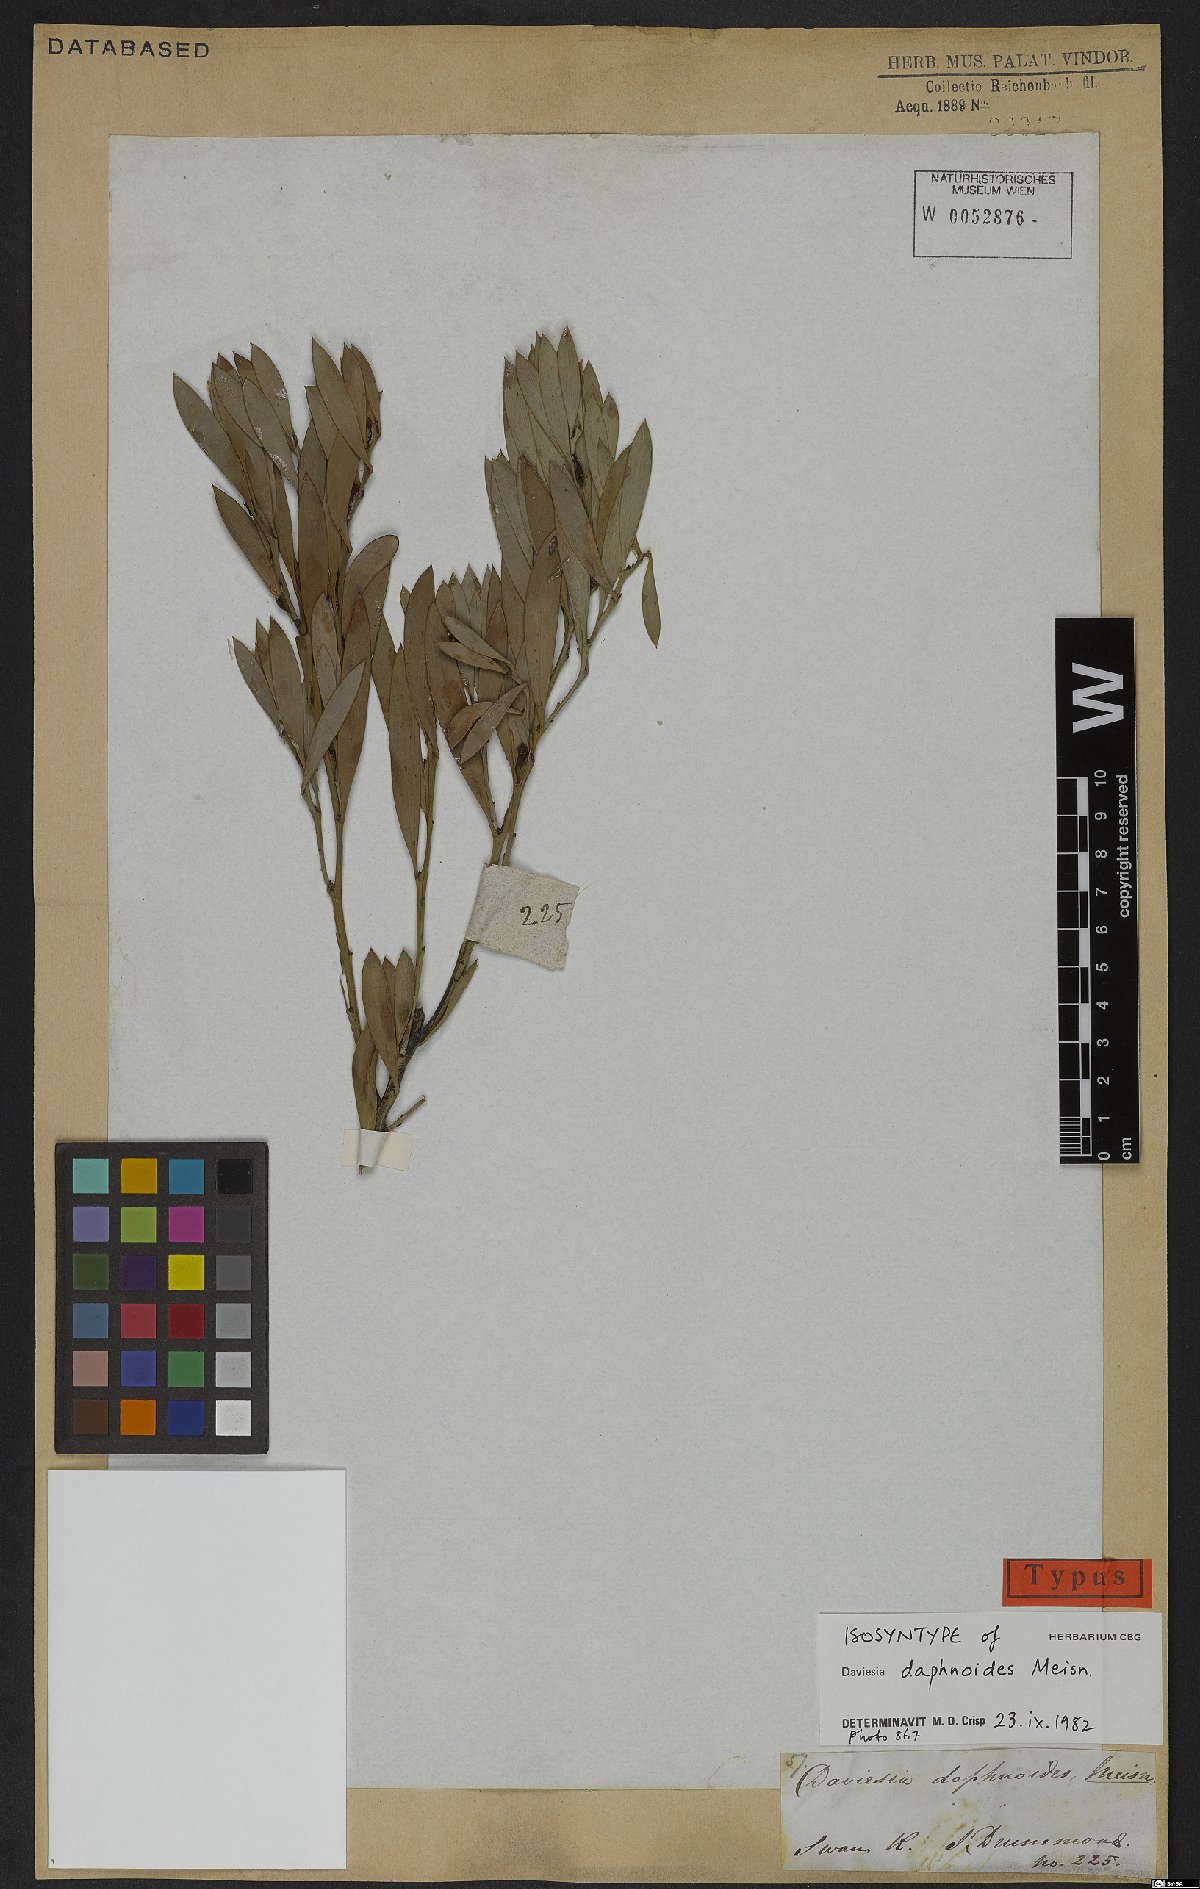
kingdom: Plantae
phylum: Tracheophyta
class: Magnoliopsida
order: Fabales
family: Fabaceae
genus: Daviesia
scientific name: Daviesia daphnoides
